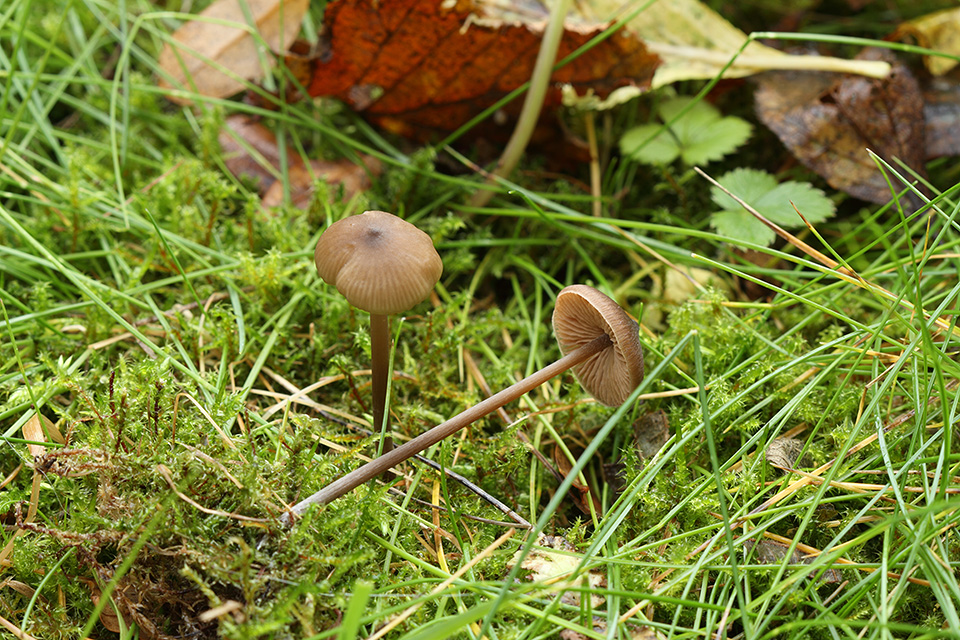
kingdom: Fungi
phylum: Basidiomycota
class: Agaricomycetes
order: Agaricales
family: Entolomataceae
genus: Entoloma
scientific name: Entoloma hebes
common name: krat-rødblad
